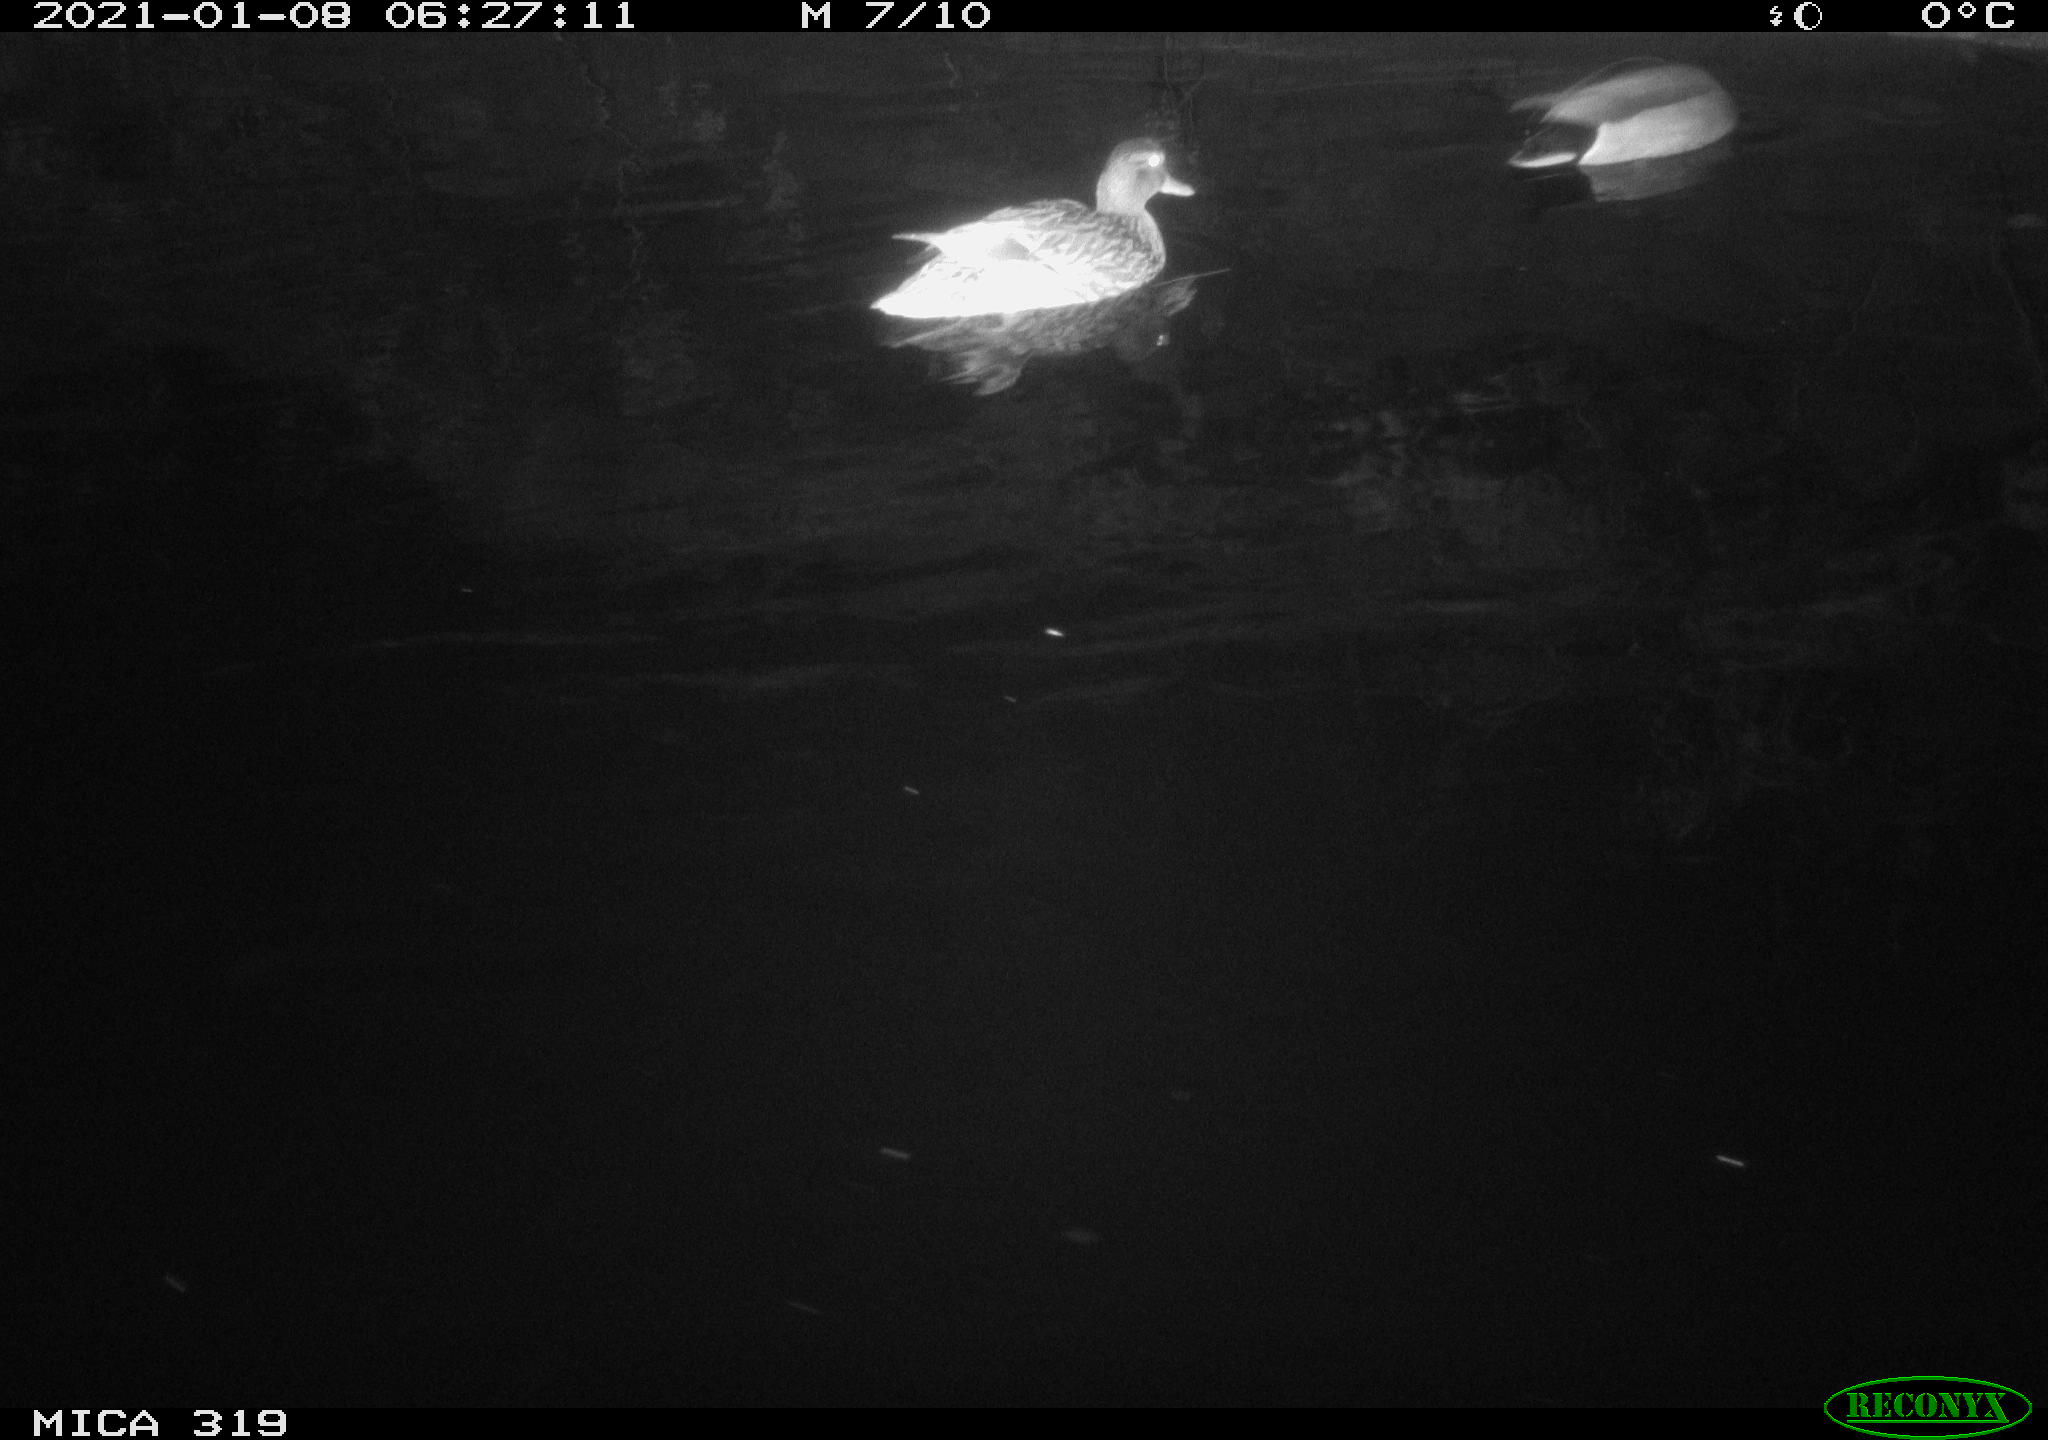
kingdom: Animalia
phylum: Chordata
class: Aves
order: Anseriformes
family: Anatidae
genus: Anas
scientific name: Anas platyrhynchos
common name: Mallard
